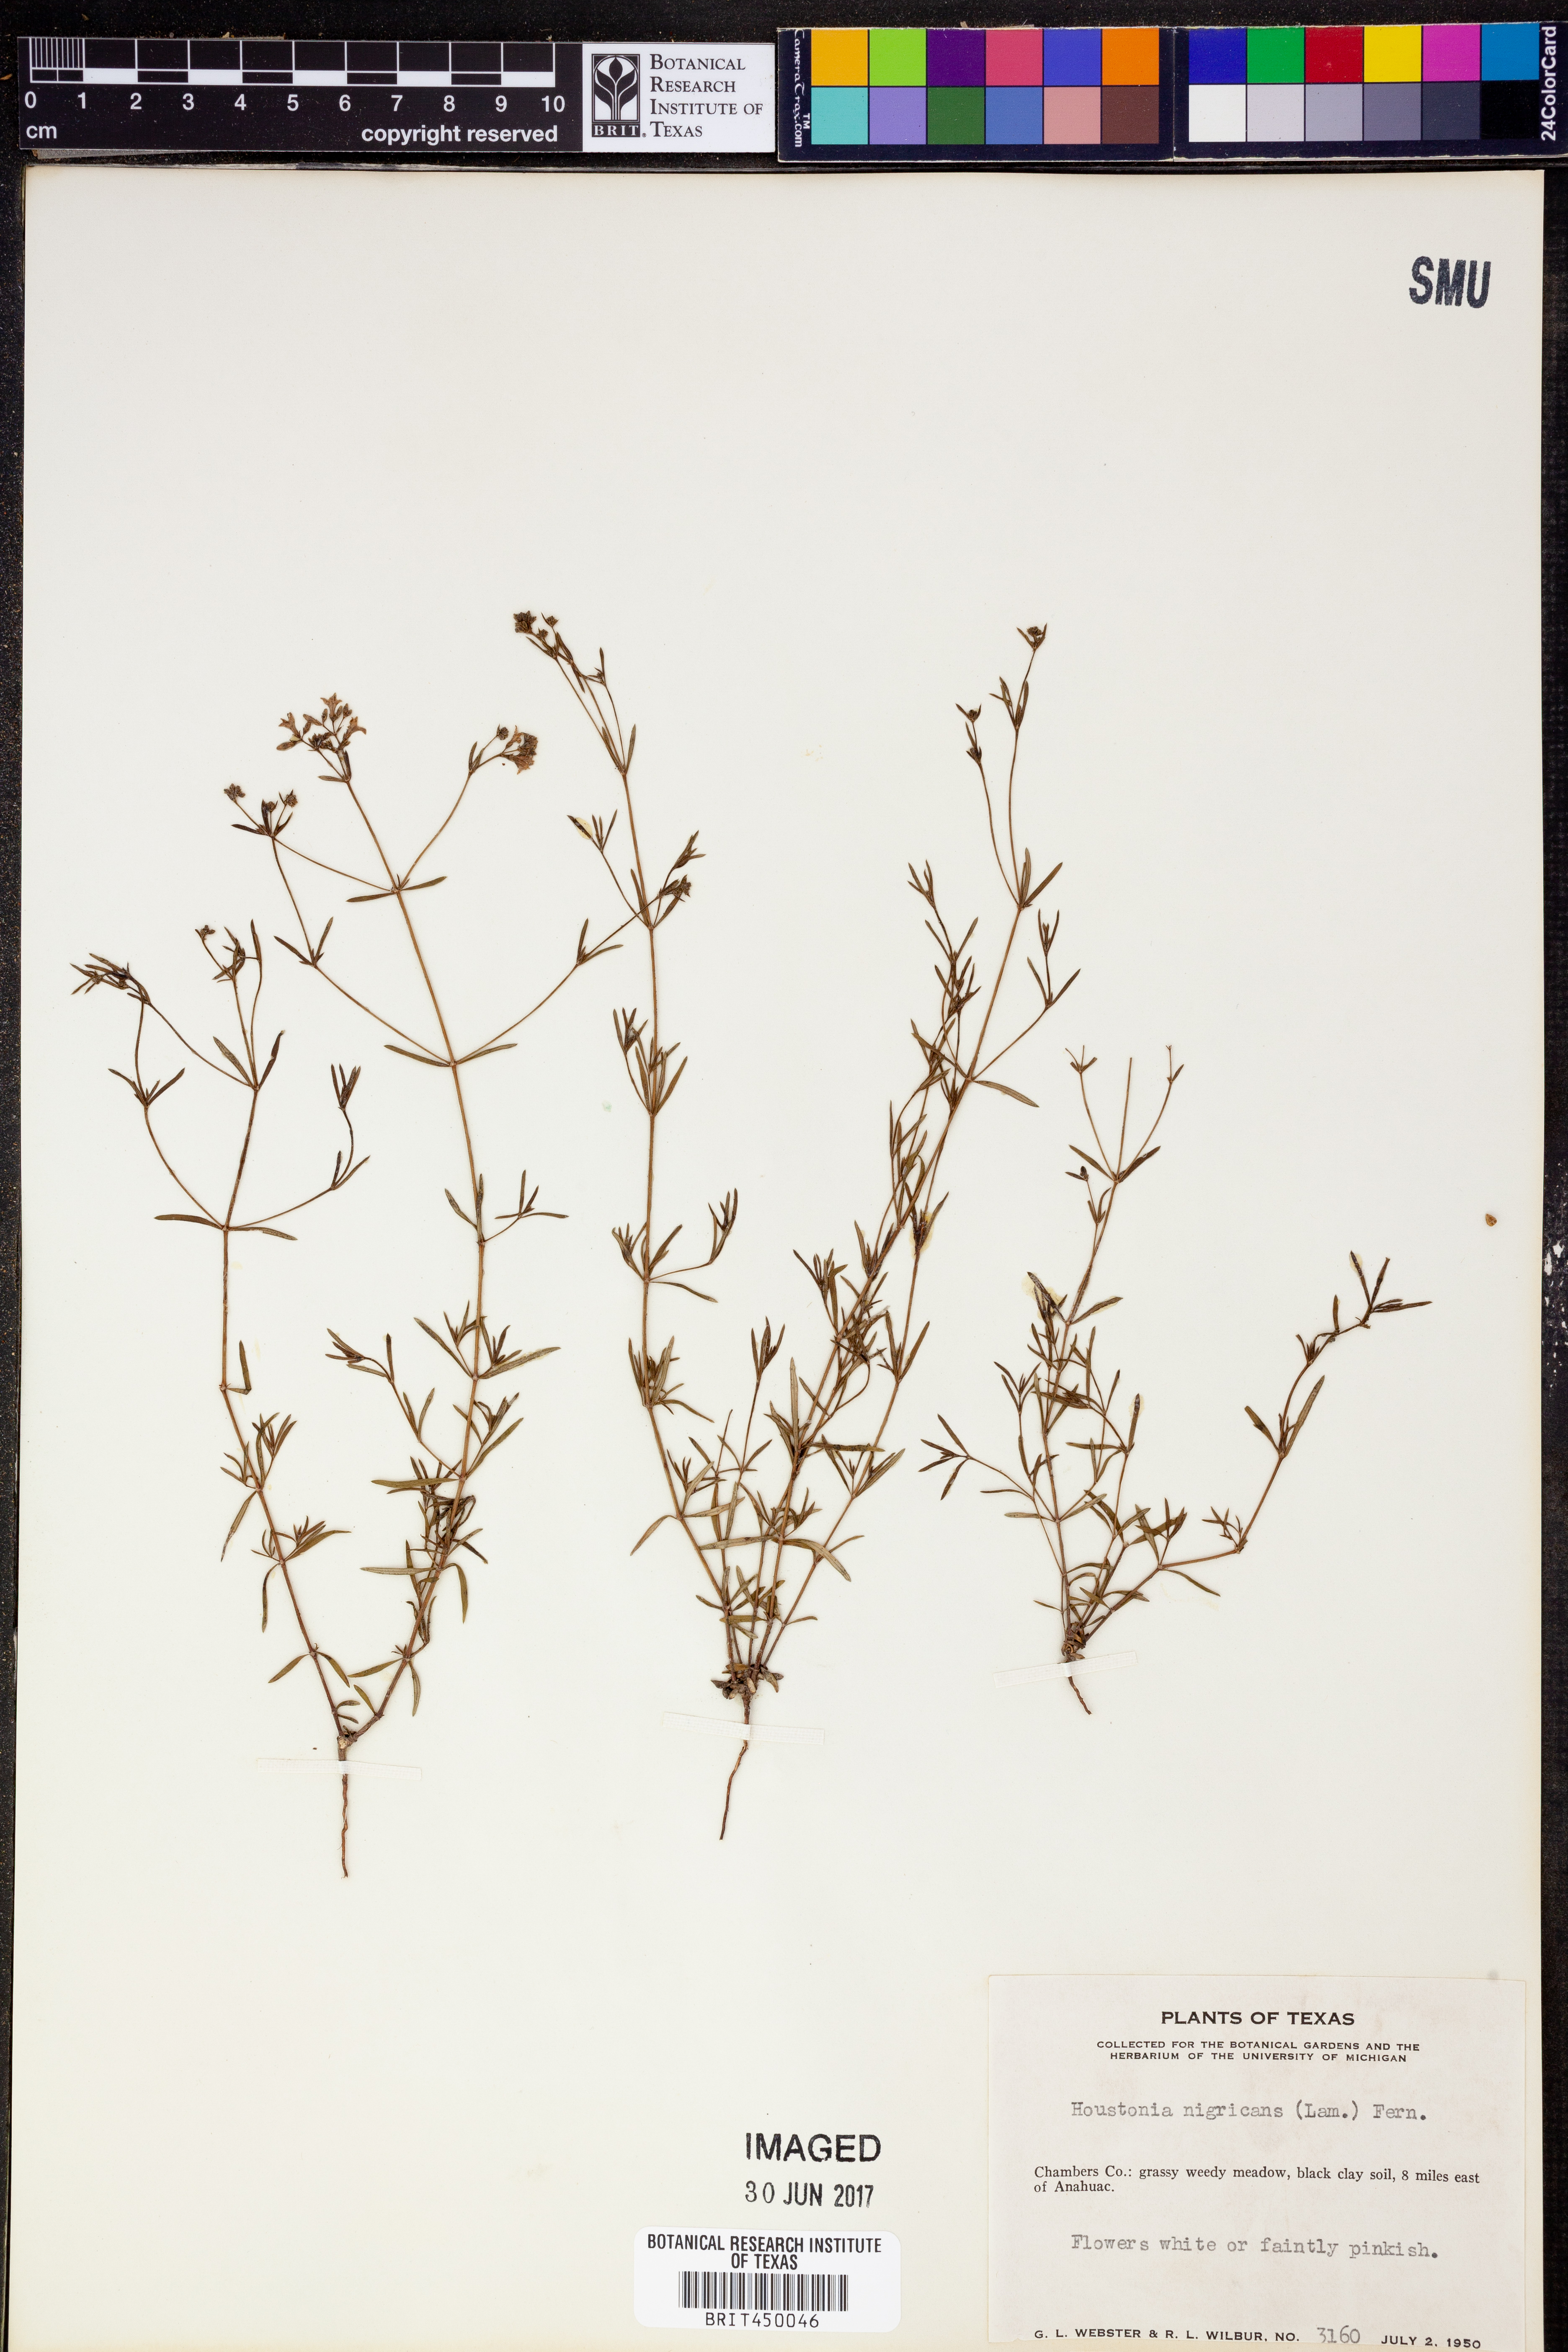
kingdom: Plantae
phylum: Tracheophyta
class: Magnoliopsida
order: Gentianales
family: Rubiaceae
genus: Stenaria
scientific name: Stenaria nigricans
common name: Diamondflowers
